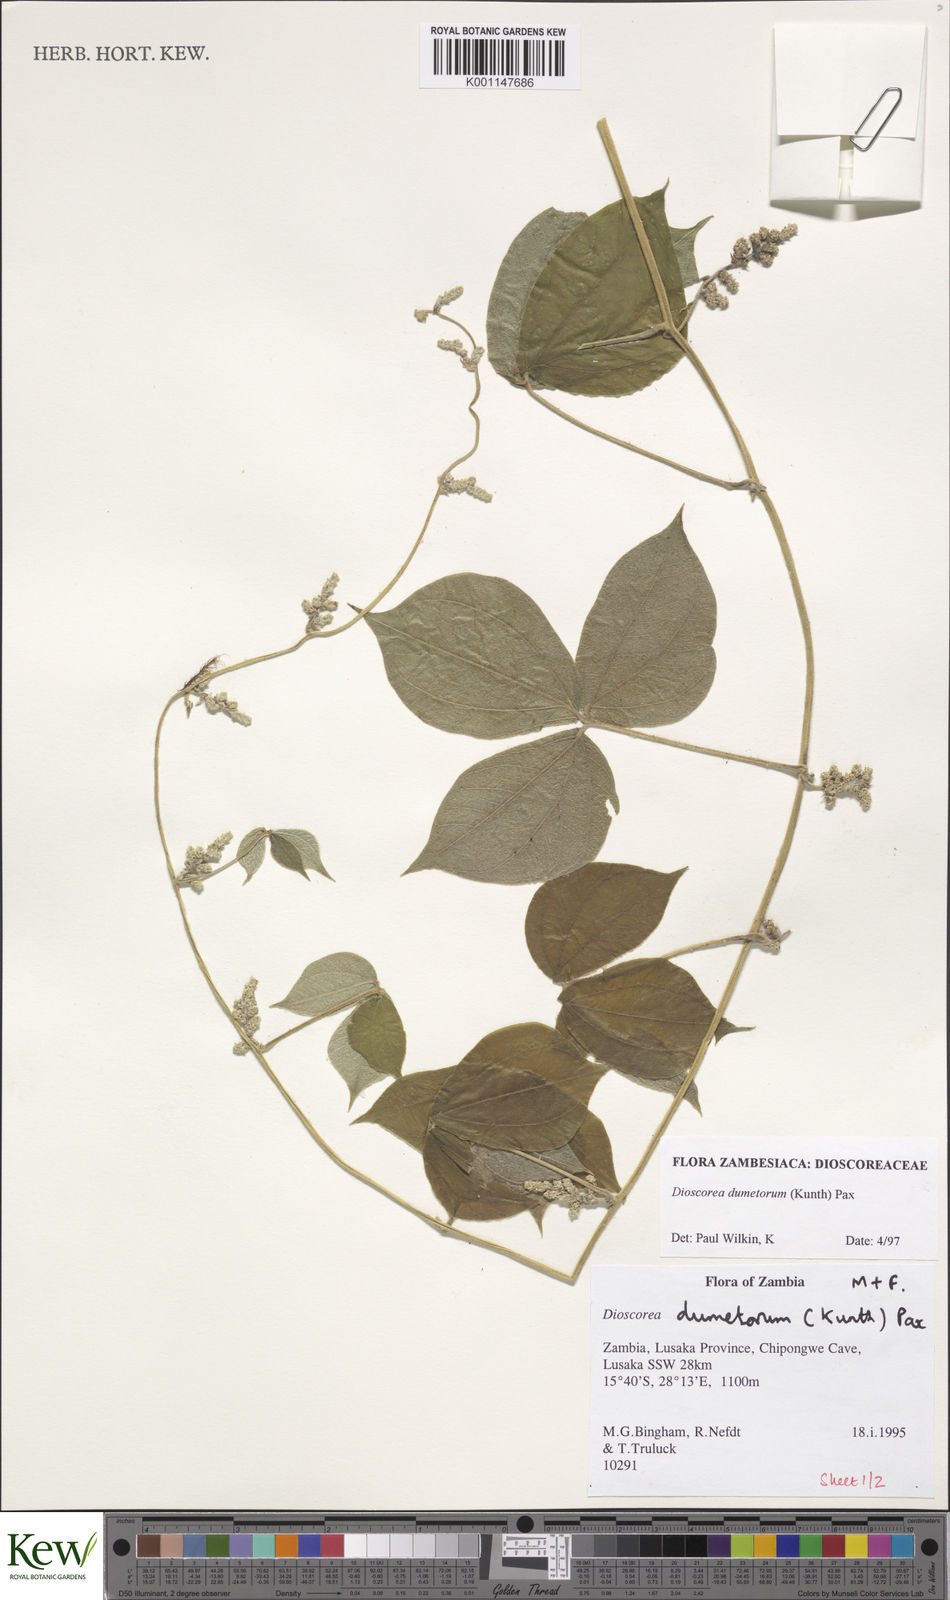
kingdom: Plantae
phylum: Tracheophyta
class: Liliopsida
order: Dioscoreales
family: Dioscoreaceae
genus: Dioscorea
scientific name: Dioscorea dumetorum
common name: African bitter yam
